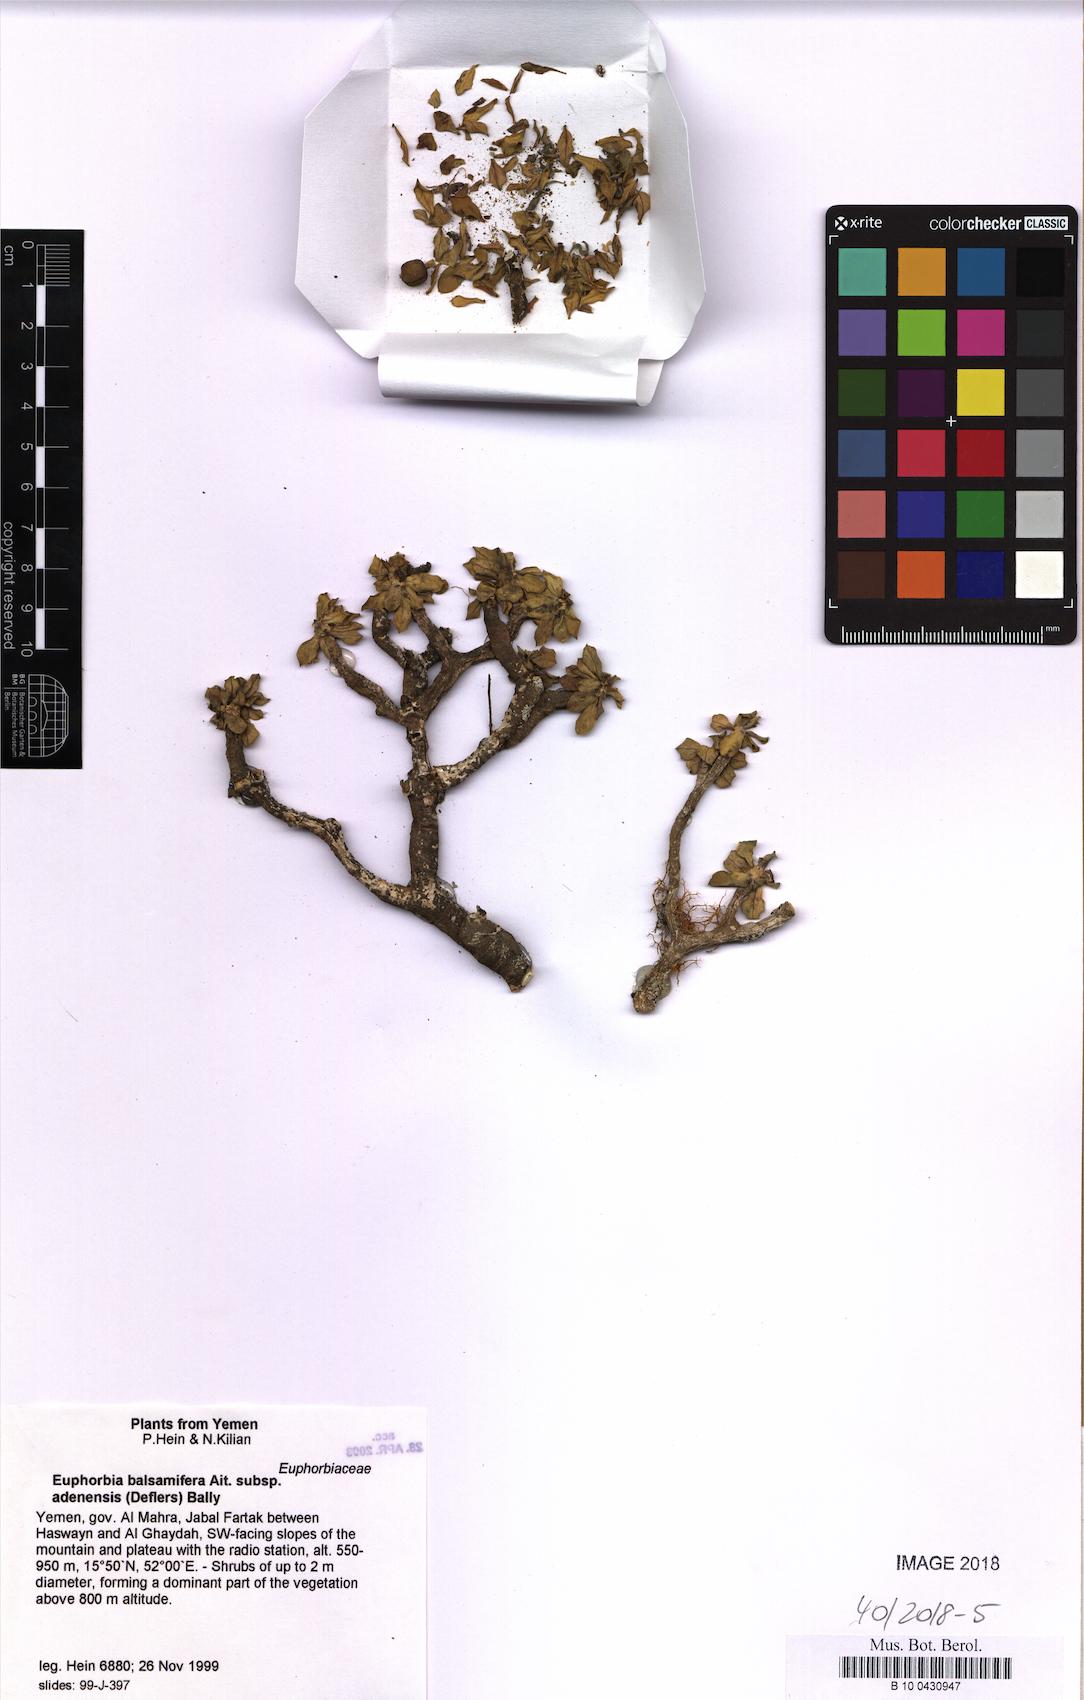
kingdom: Plantae
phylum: Tracheophyta
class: Magnoliopsida
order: Malpighiales
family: Euphorbiaceae
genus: Euphorbia
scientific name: Euphorbia adenensis
